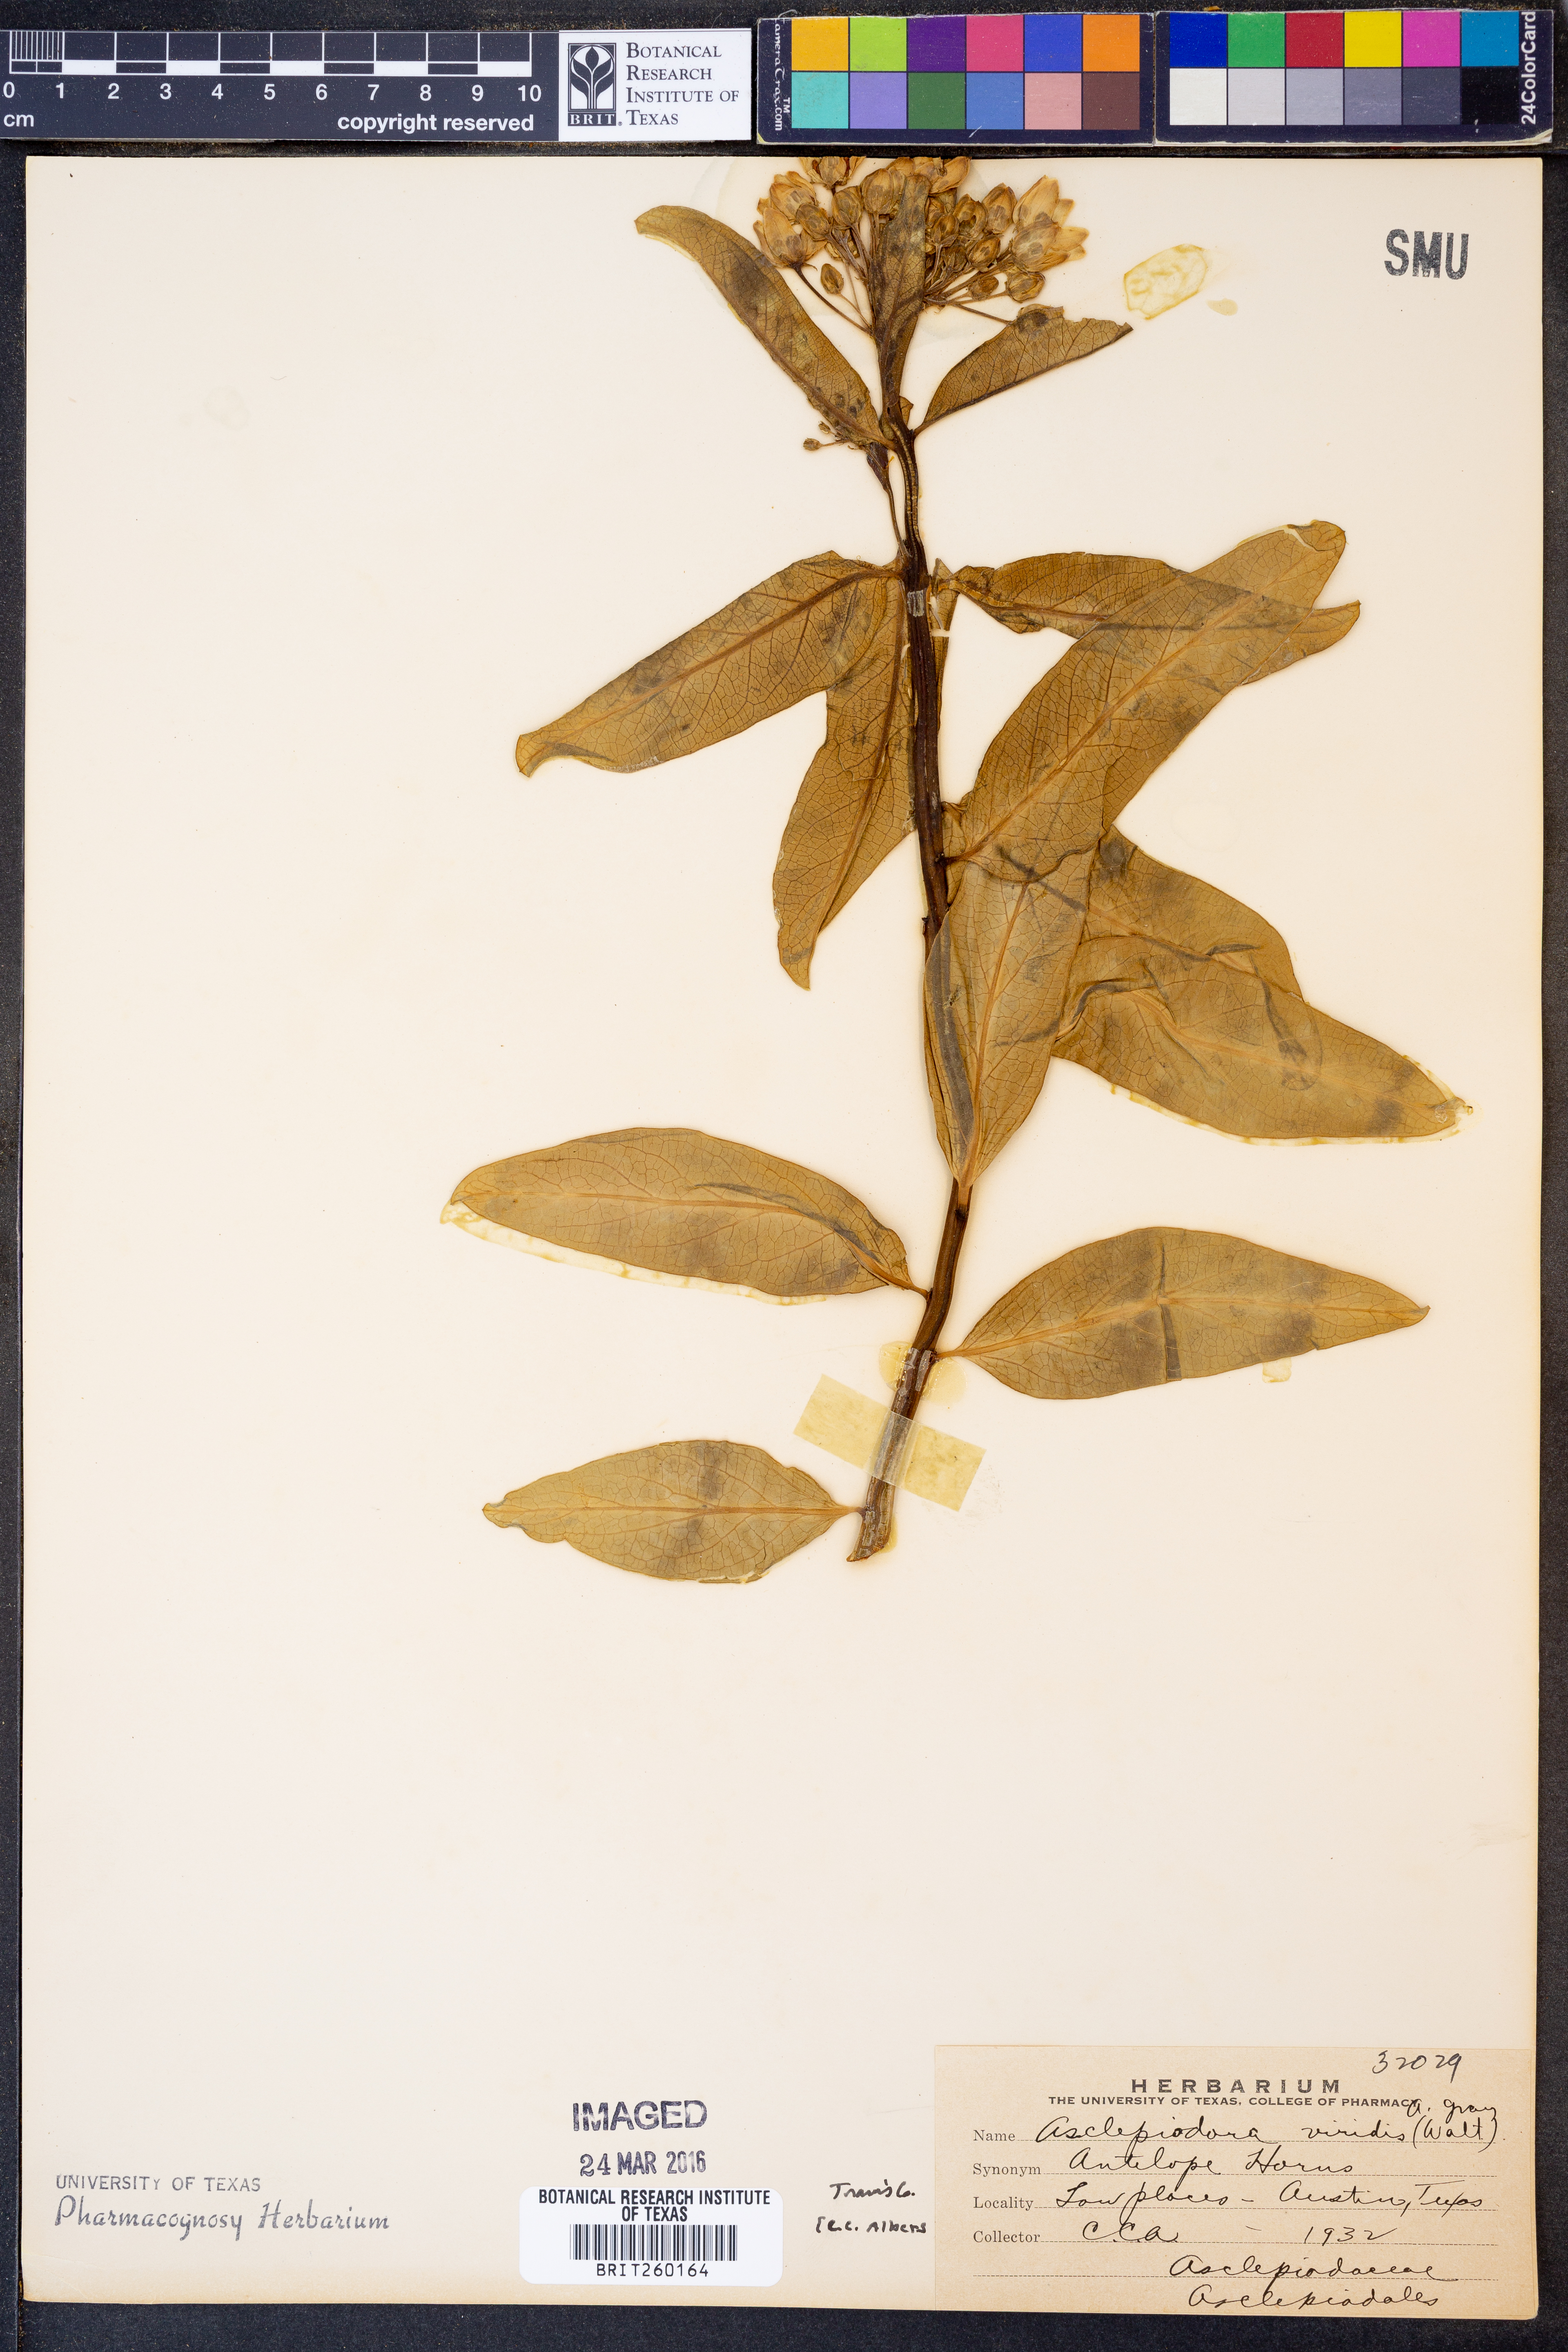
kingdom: Plantae
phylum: Tracheophyta
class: Magnoliopsida
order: Gentianales
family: Apocynaceae
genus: Asclepias
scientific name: Asclepias viridis
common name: Antelope-horns
